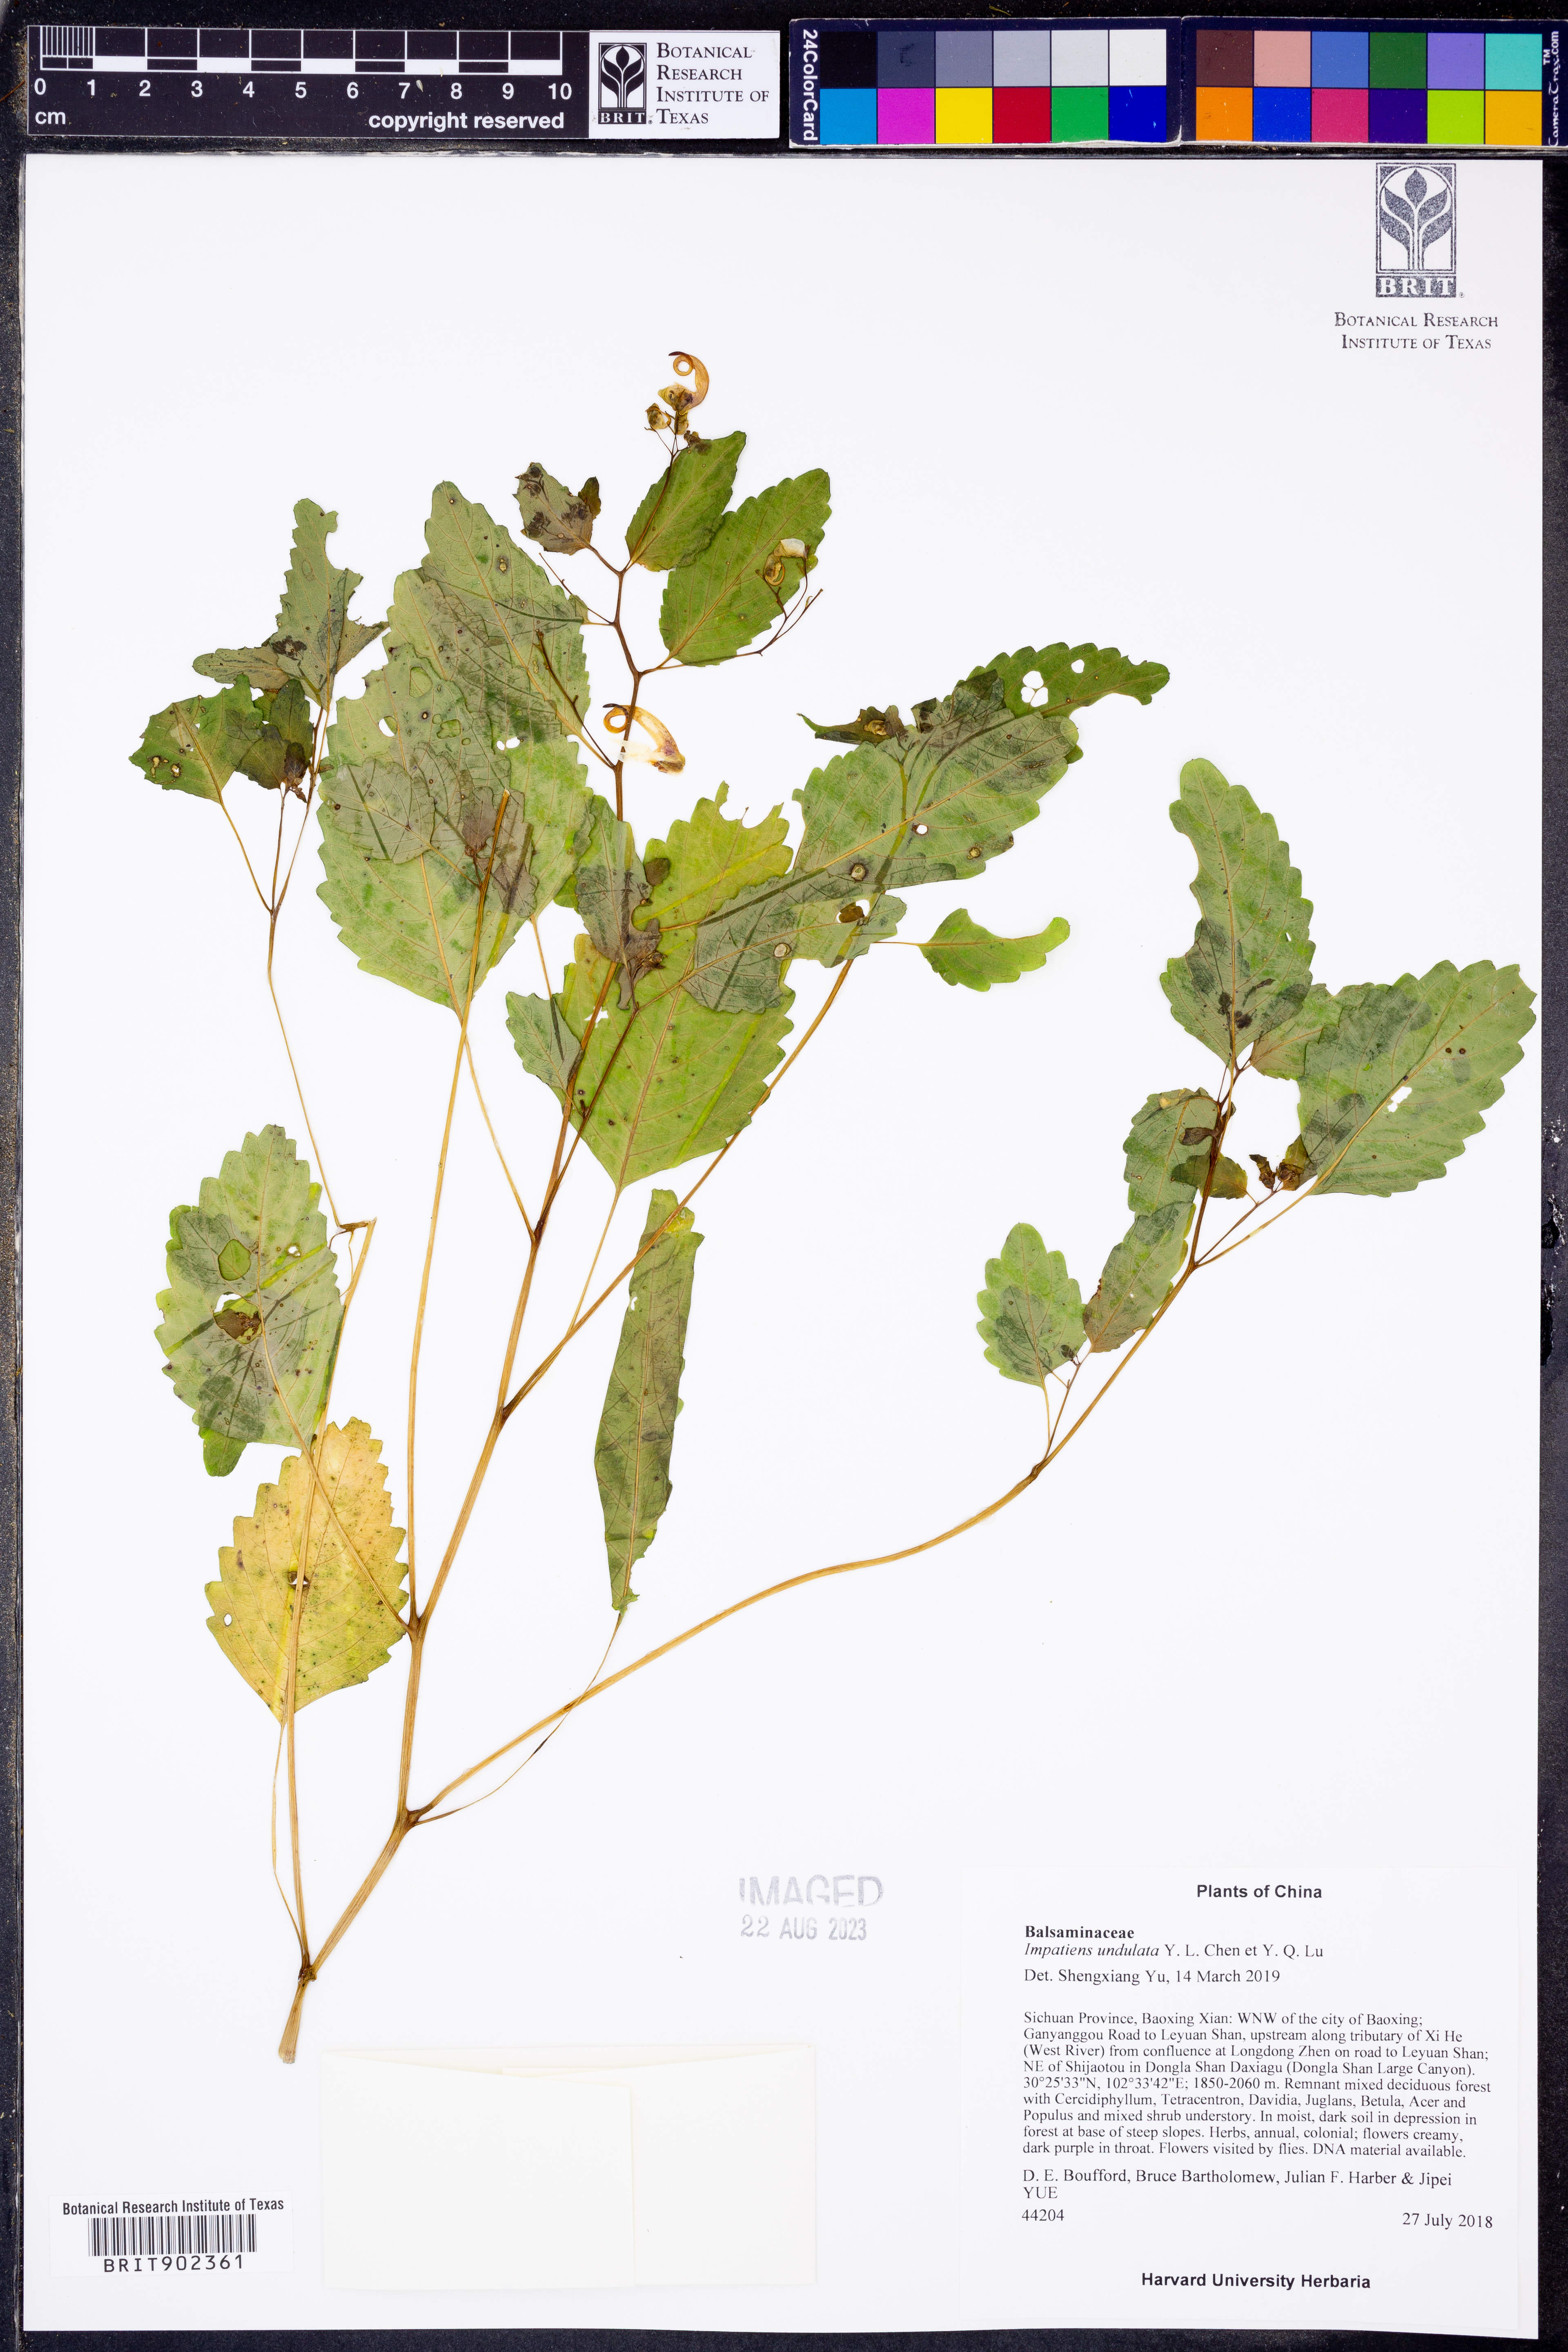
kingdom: Plantae
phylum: Tracheophyta
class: Magnoliopsida
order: Ericales
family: Balsaminaceae
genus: Impatiens
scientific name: Impatiens
